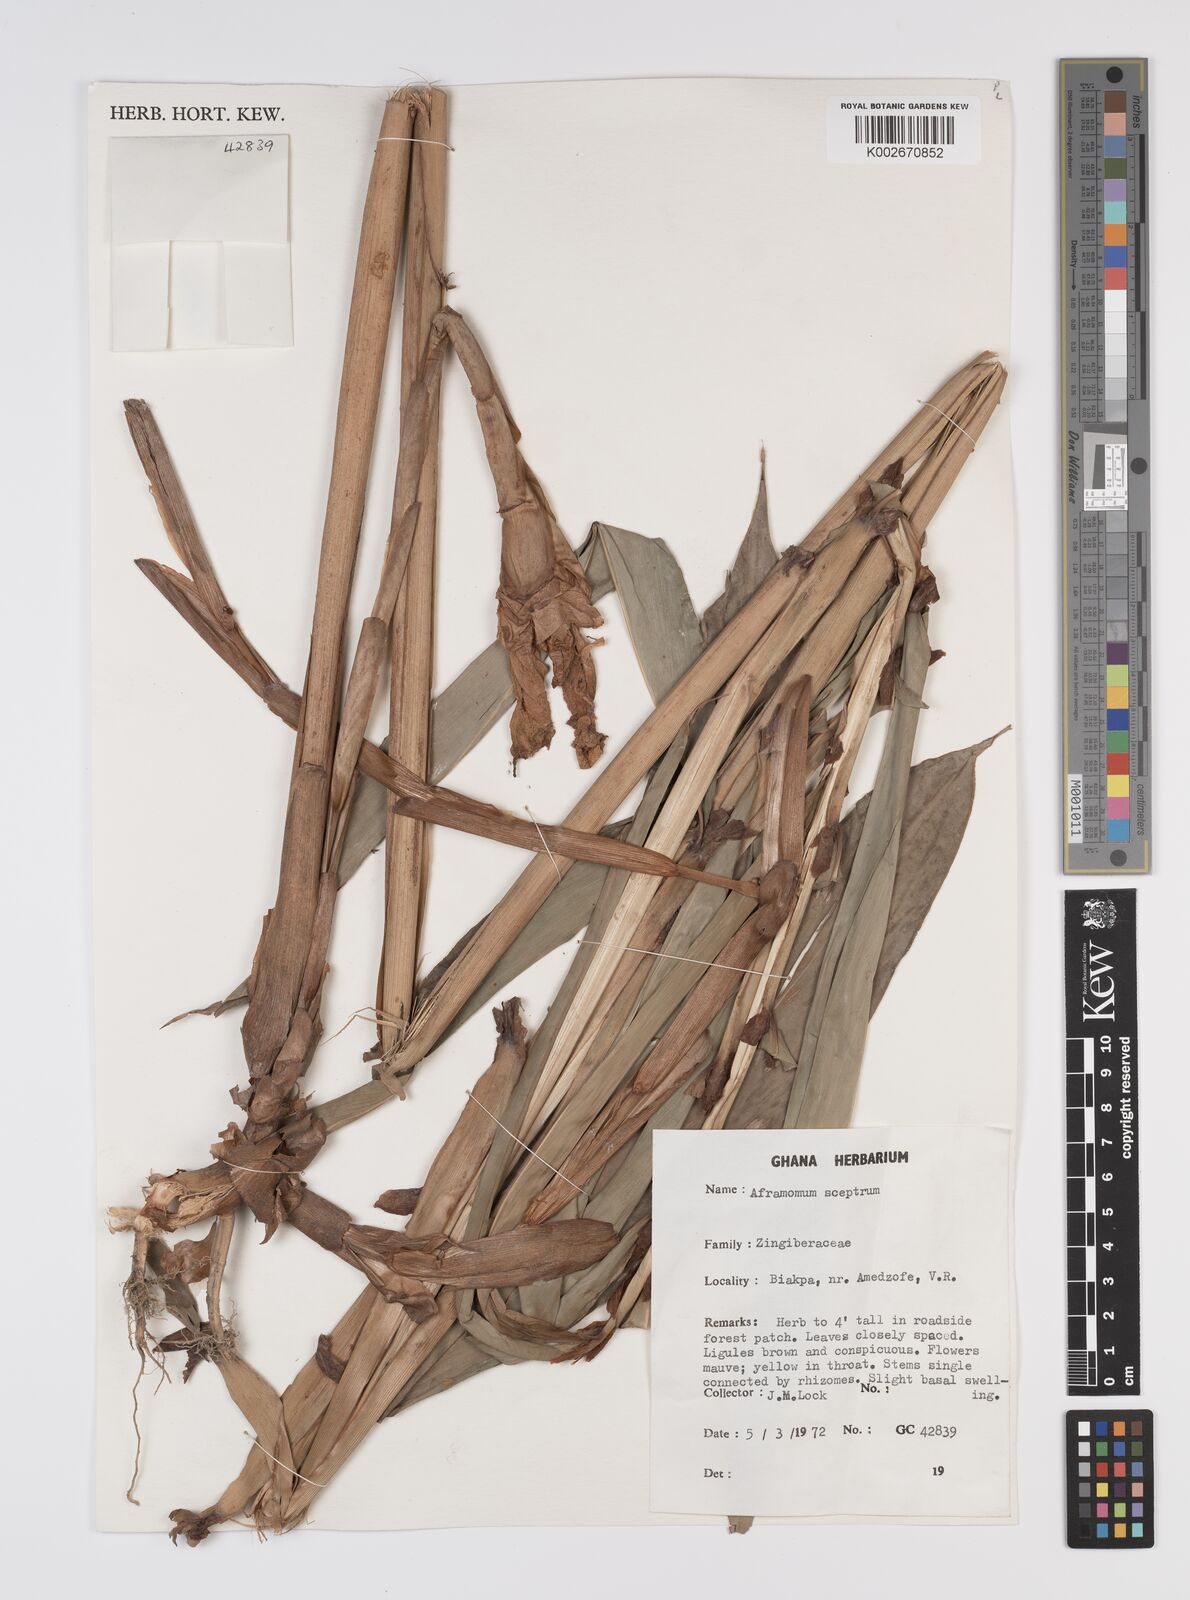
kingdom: Plantae
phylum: Tracheophyta
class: Liliopsida
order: Zingiberales
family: Zingiberaceae
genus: Aframomum
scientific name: Aframomum cereum
